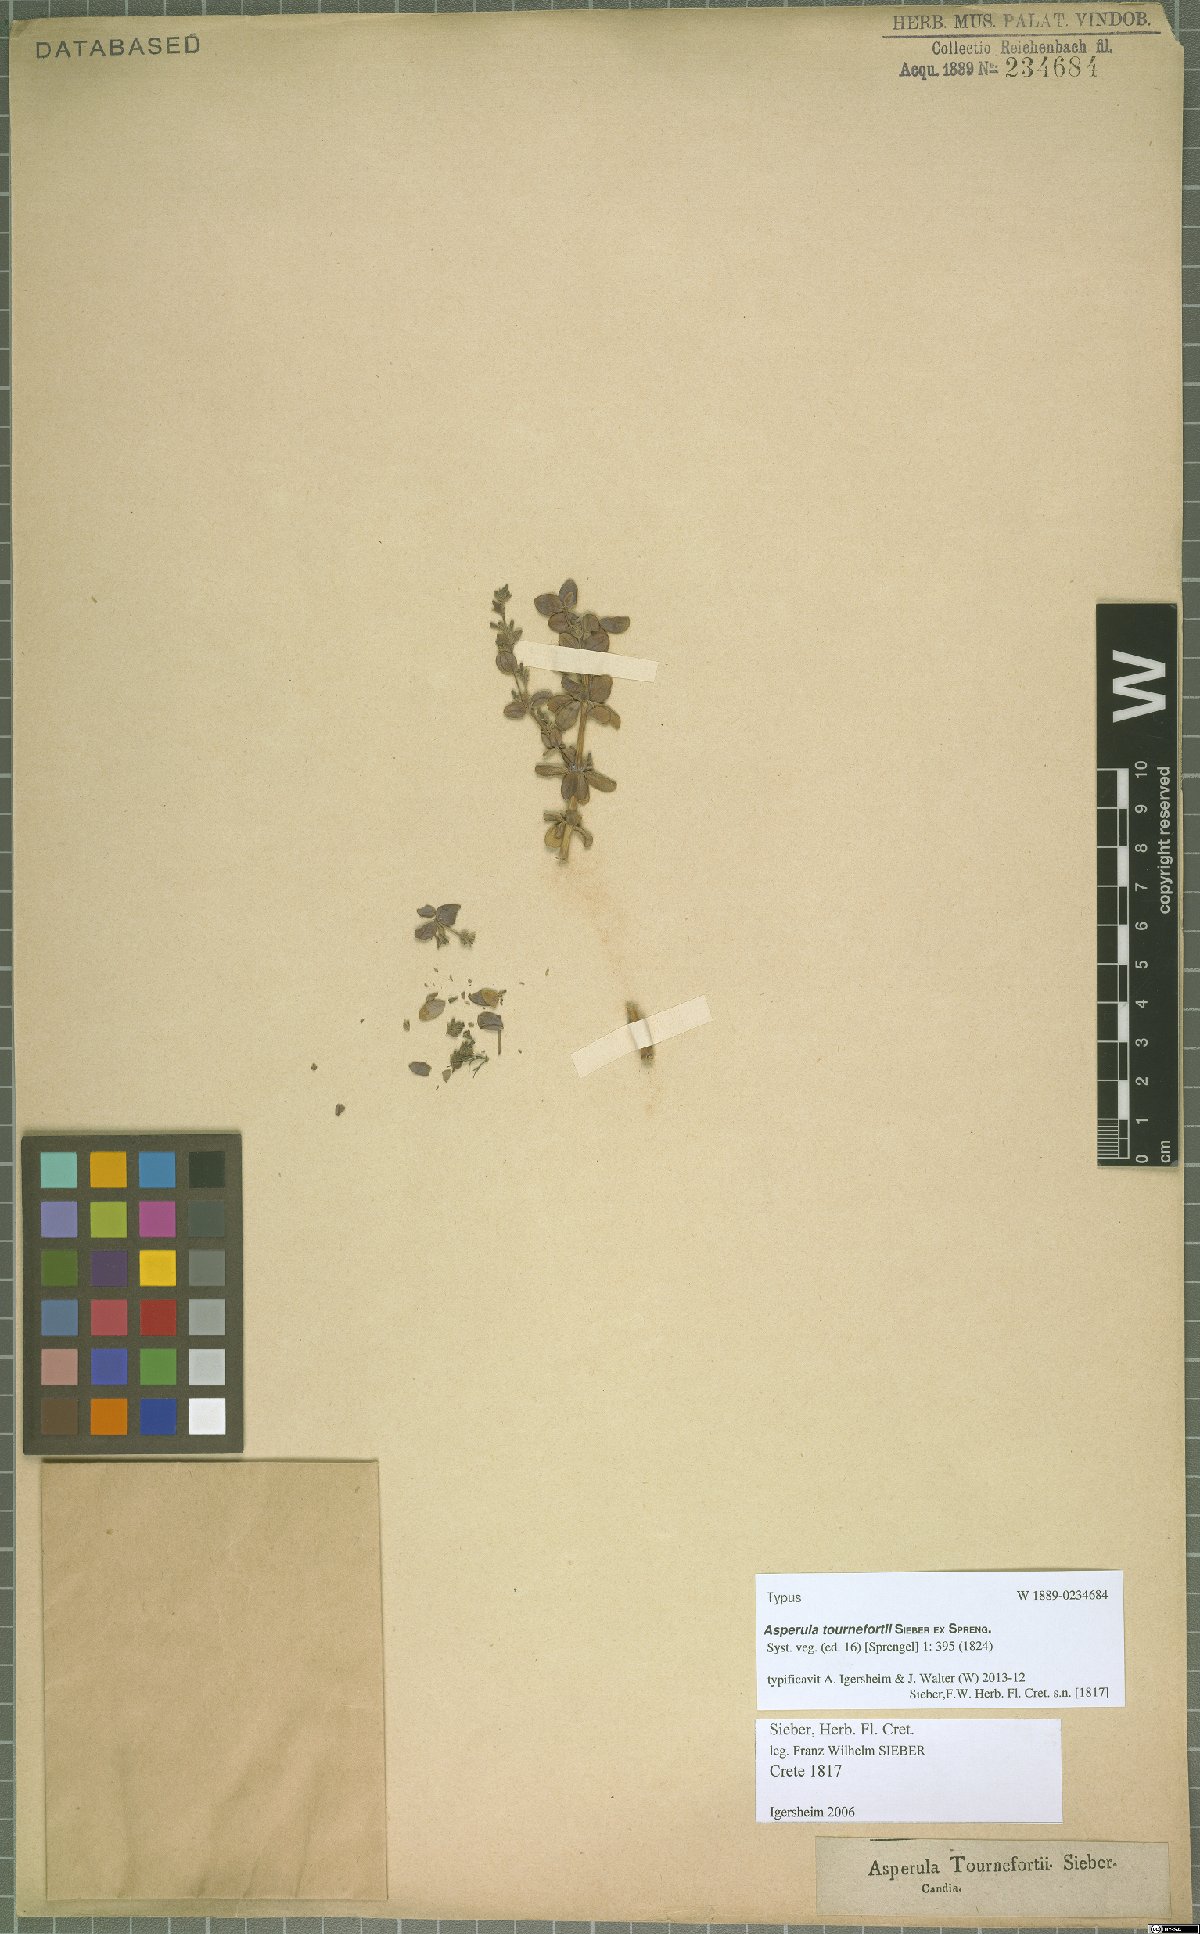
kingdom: Plantae
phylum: Tracheophyta
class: Magnoliopsida
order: Gentianales
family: Rubiaceae
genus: Asperula
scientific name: Asperula tournefortii
